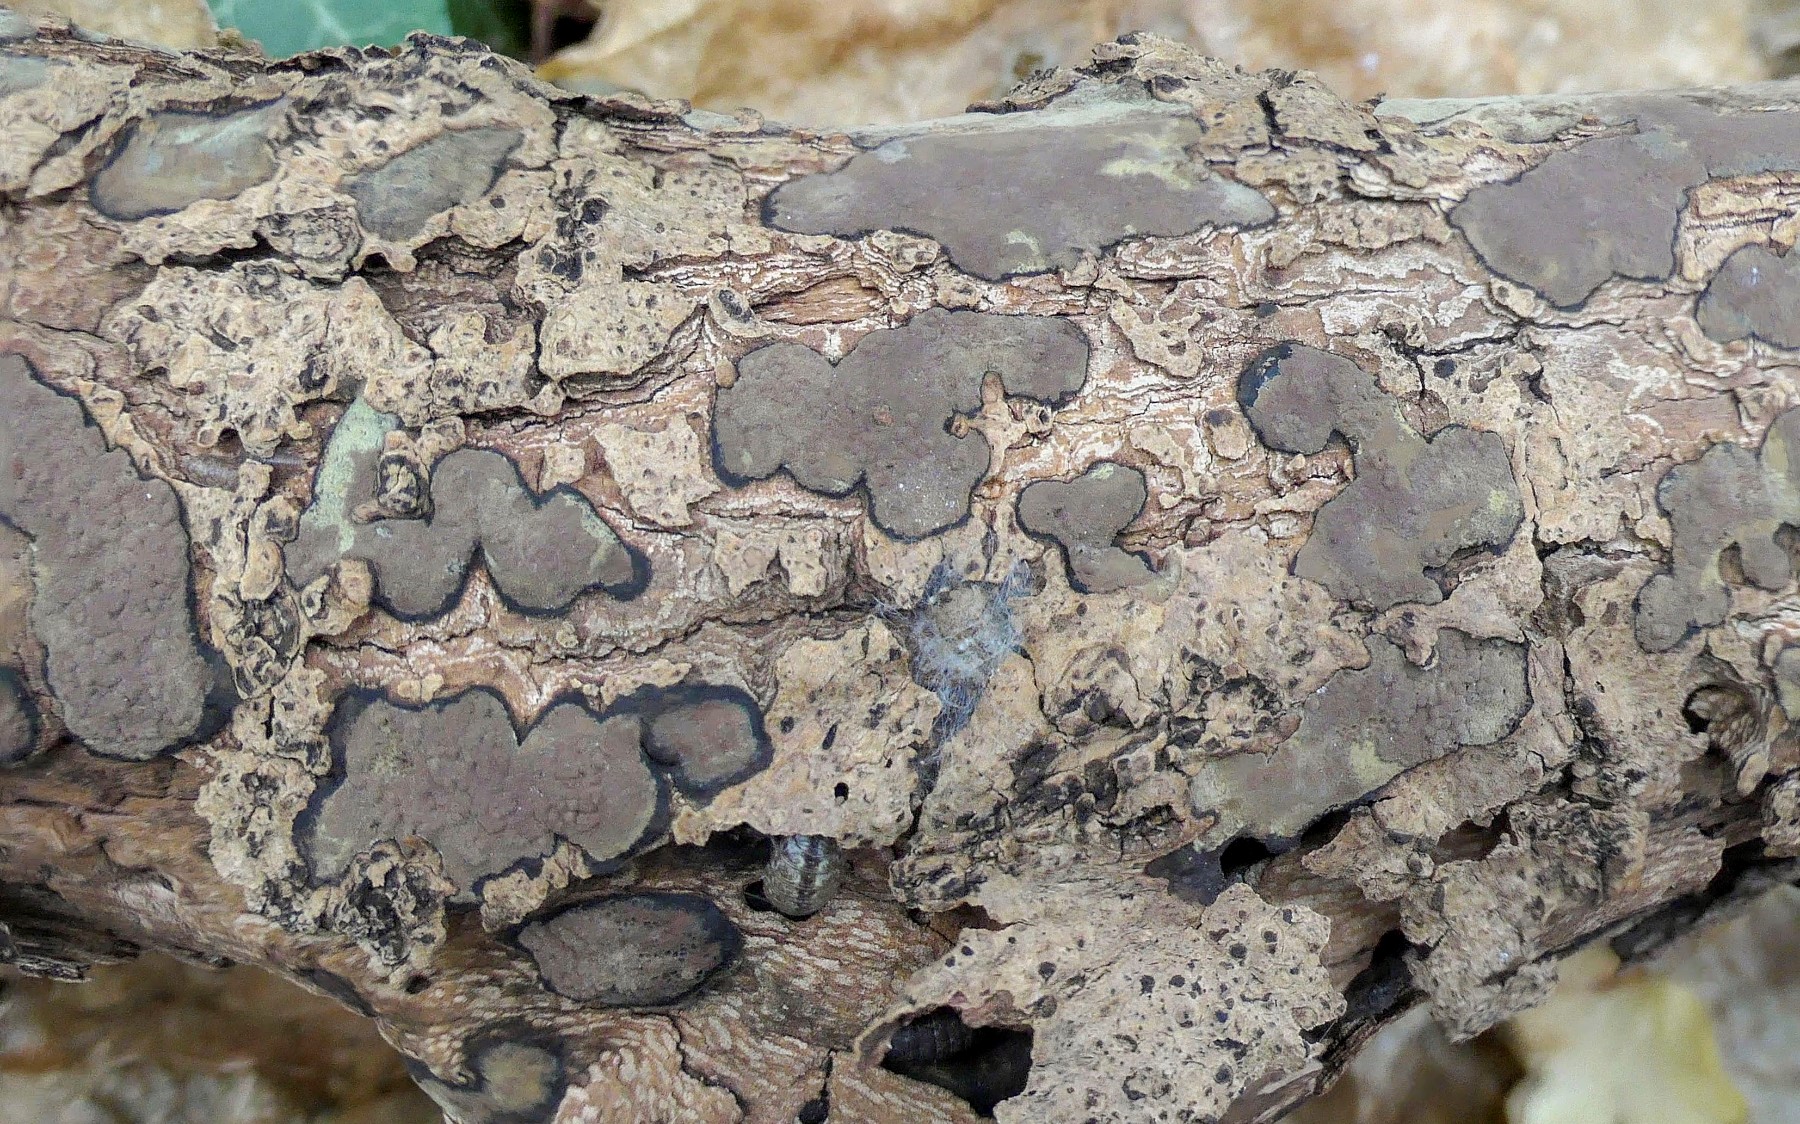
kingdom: Fungi
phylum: Ascomycota
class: Sordariomycetes
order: Xylariales
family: Hypoxylaceae
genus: Hypoxylon
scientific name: Hypoxylon petriniae
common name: nedsænket kulbær
